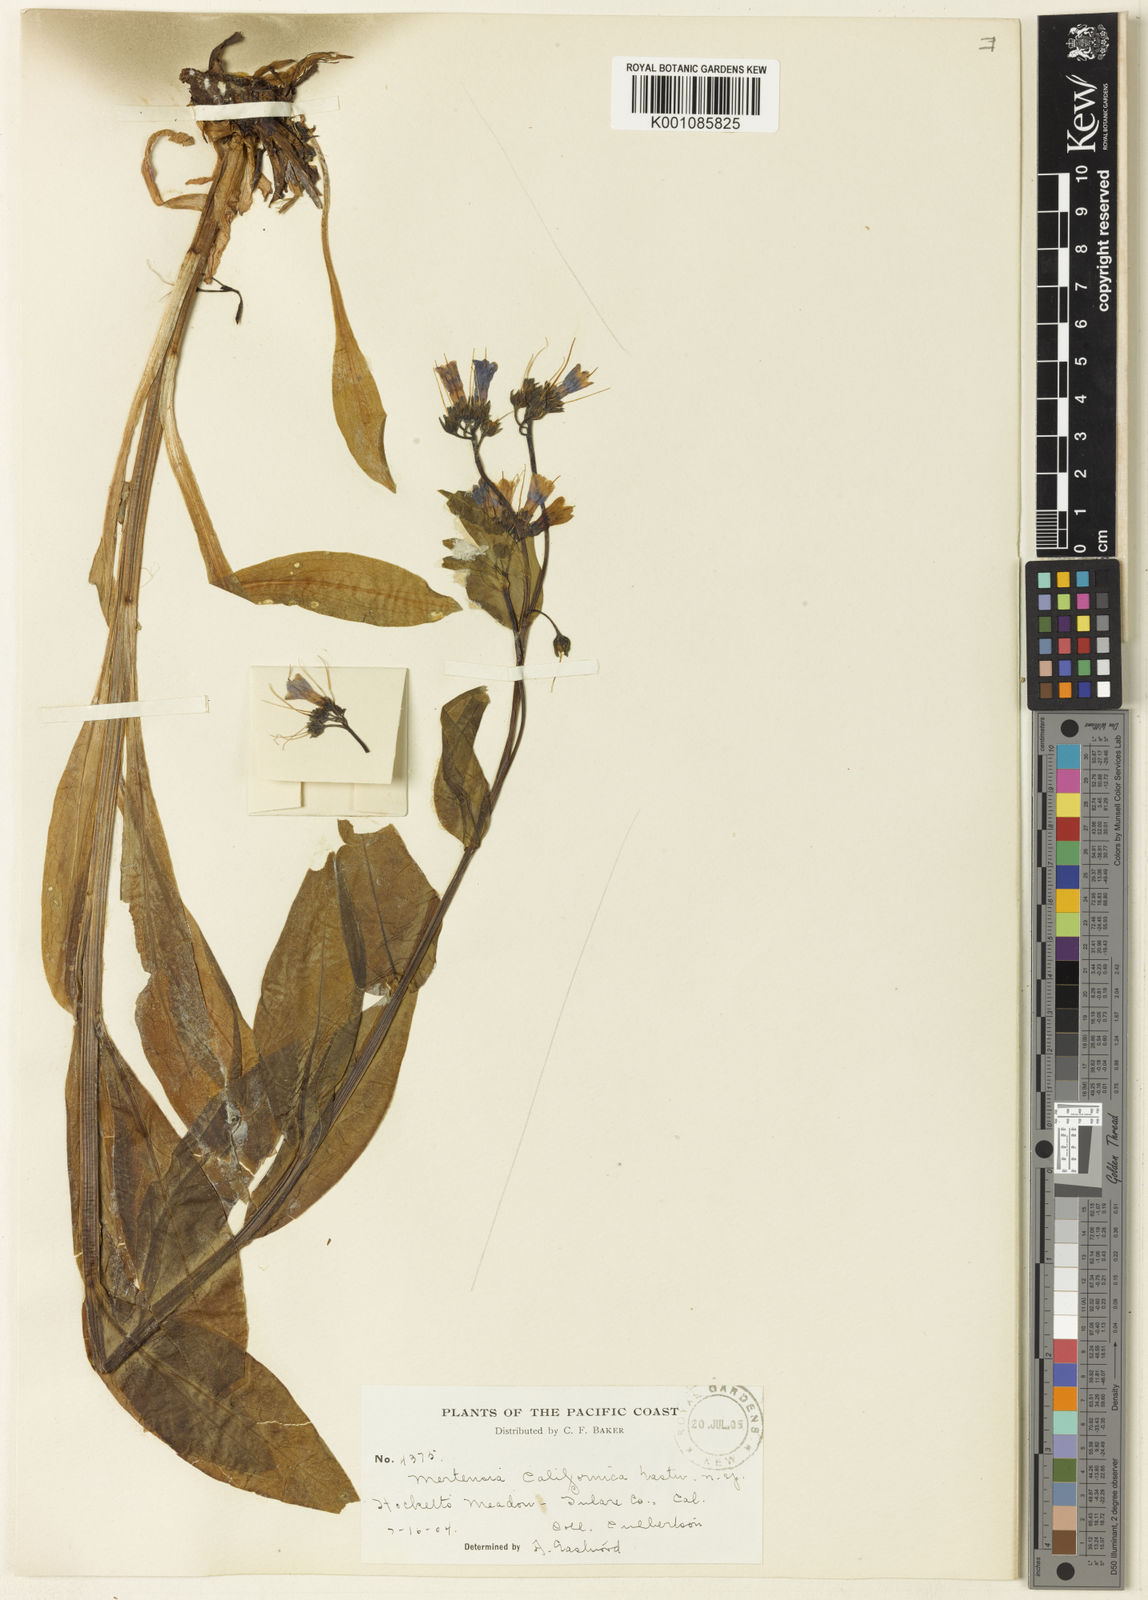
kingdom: Plantae
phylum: Tracheophyta
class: Magnoliopsida
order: Boraginales
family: Boraginaceae
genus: Mertensia
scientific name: Mertensia ciliata
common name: Tall chiming-bells
